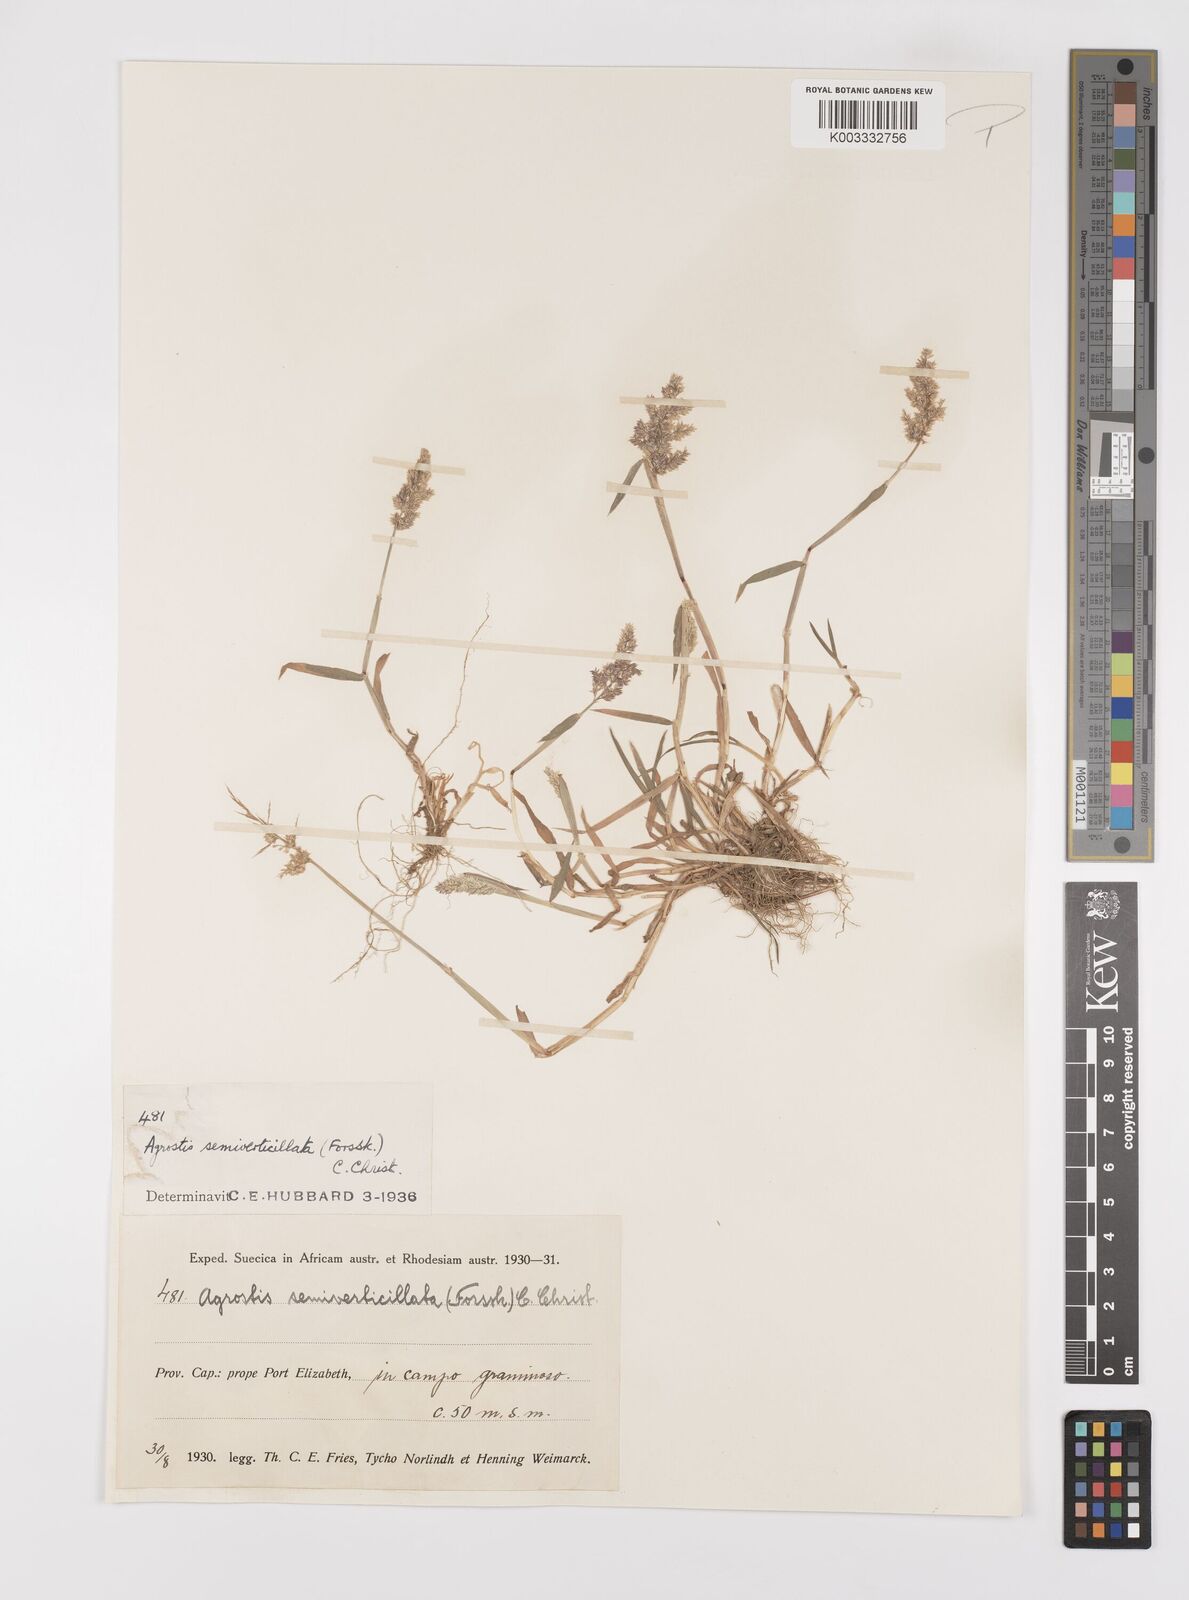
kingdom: Plantae
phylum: Tracheophyta
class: Liliopsida
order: Poales
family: Poaceae
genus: Polypogon
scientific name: Polypogon viridis
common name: Water bent
